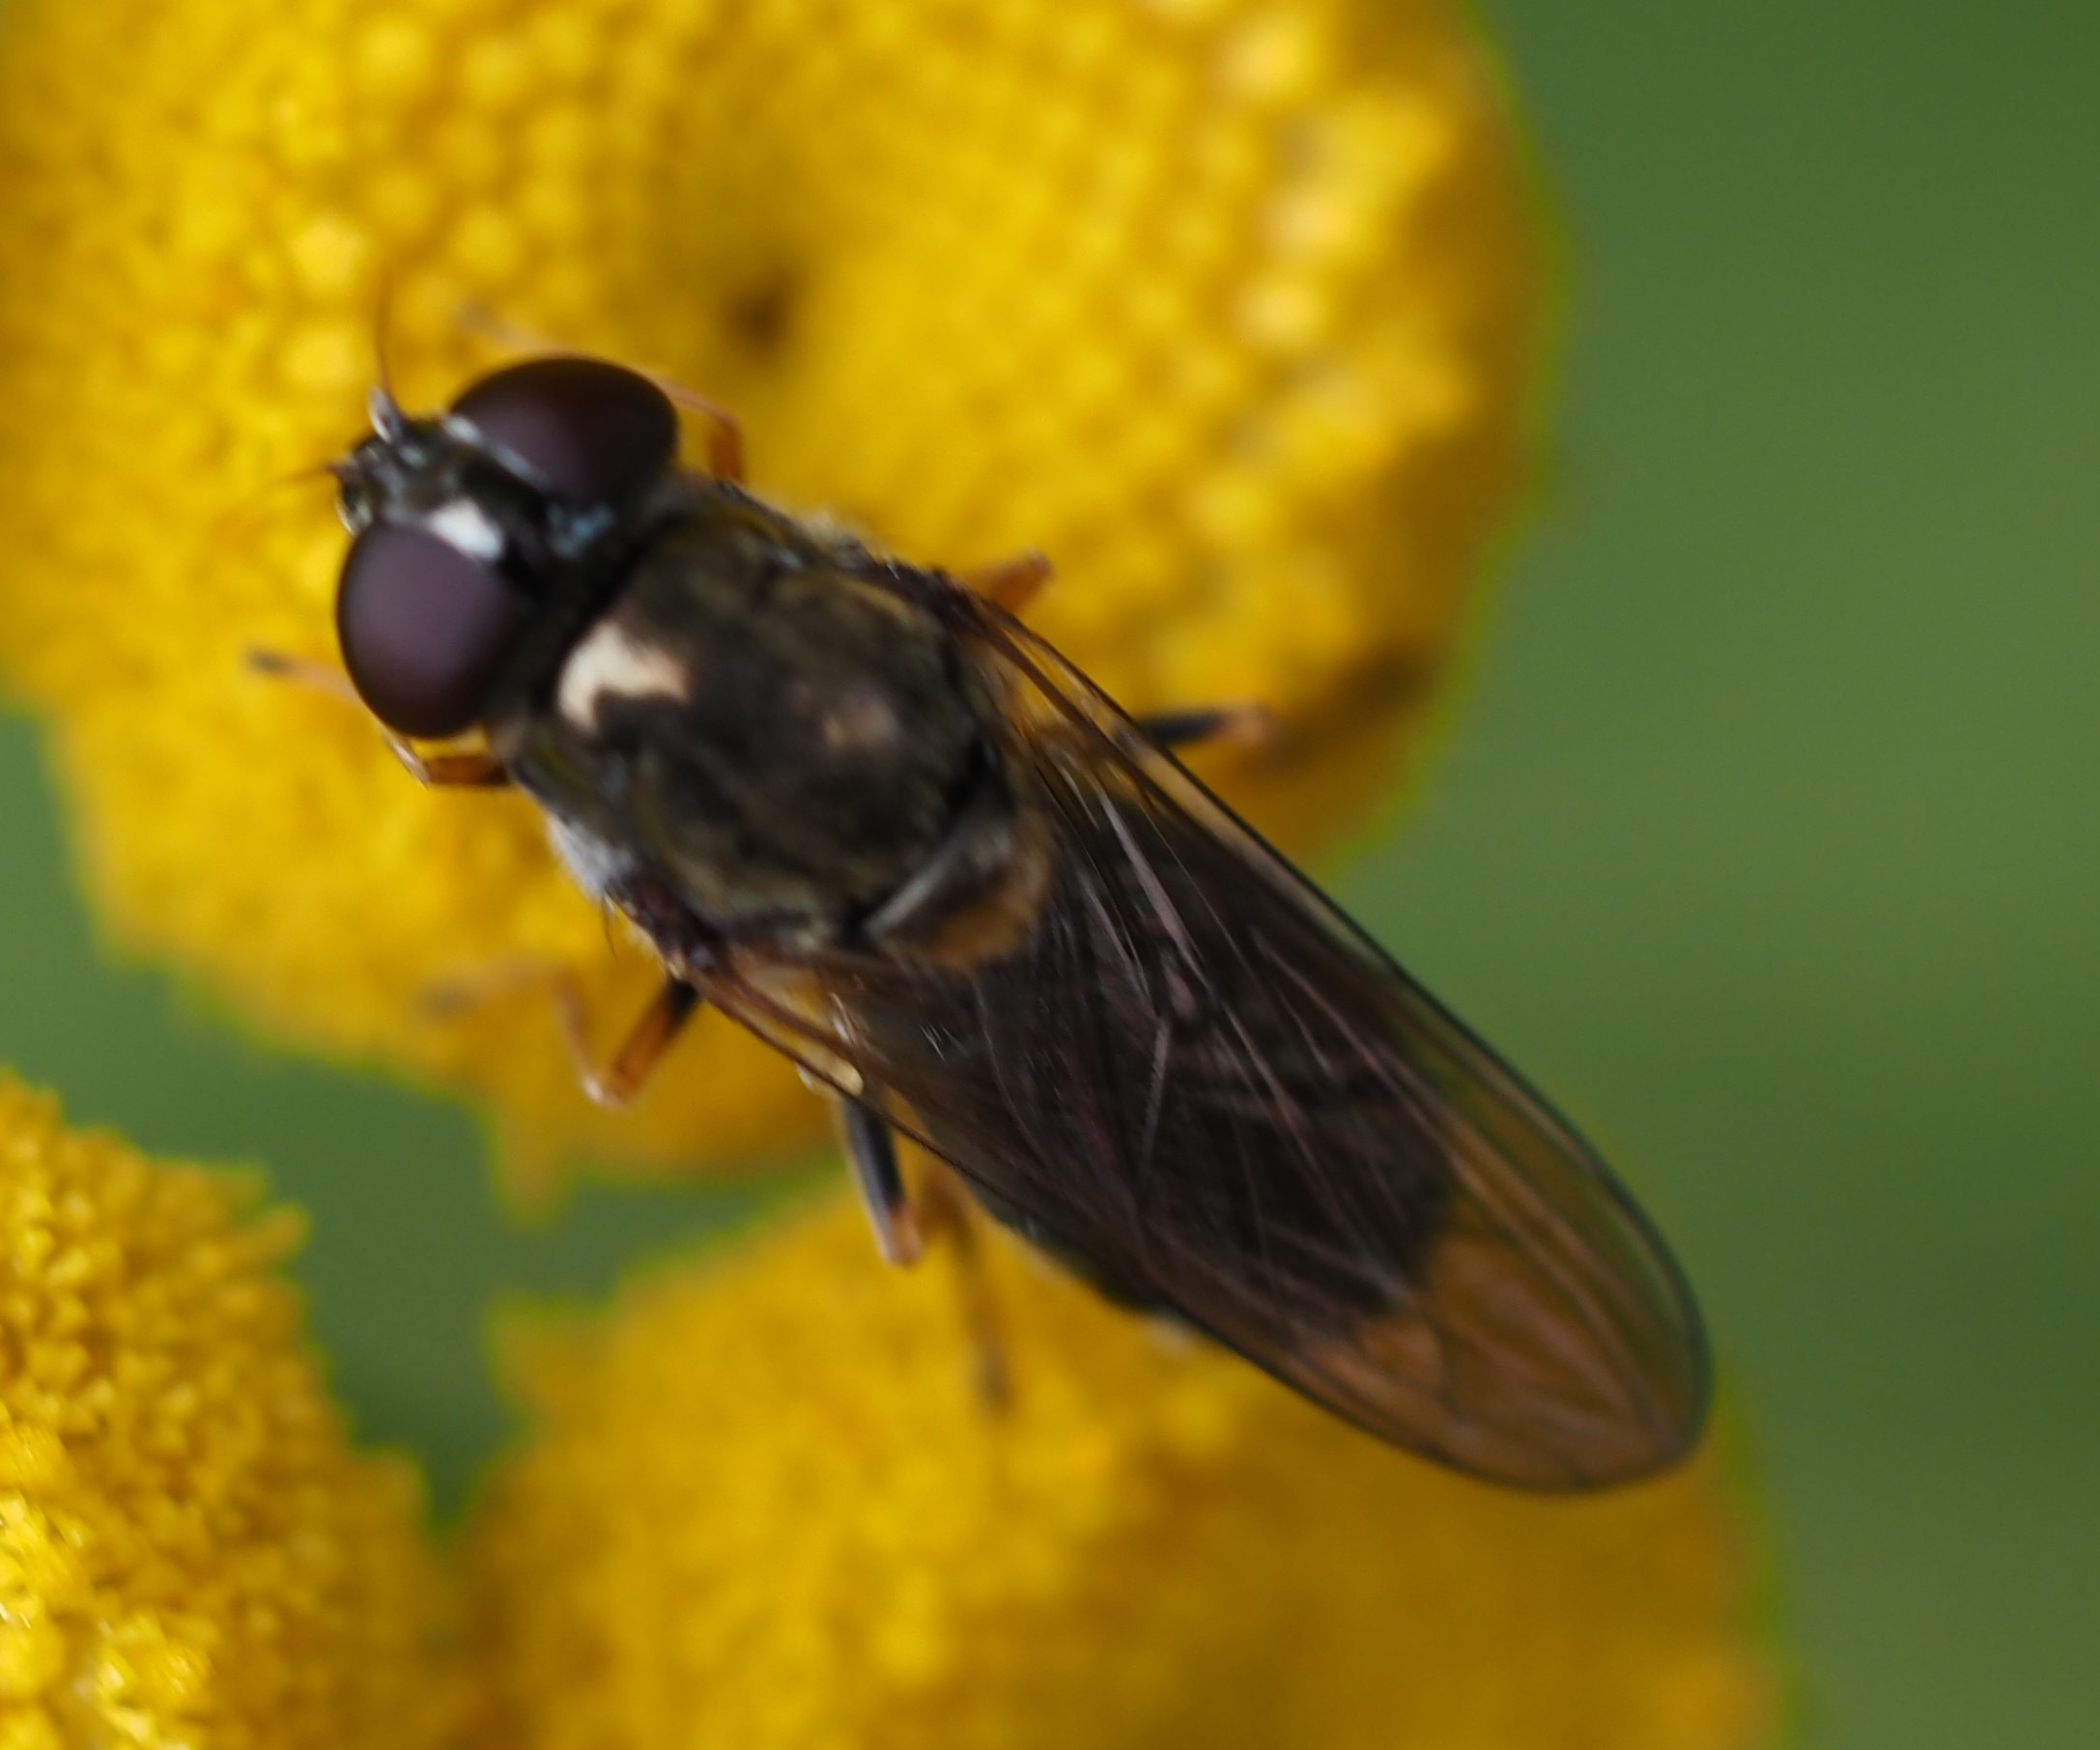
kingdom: Animalia
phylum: Arthropoda
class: Insecta
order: Diptera
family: Syrphidae
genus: Cheilosia
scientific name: Cheilosia scutellata
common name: Rørhat-urtesvirreflue
